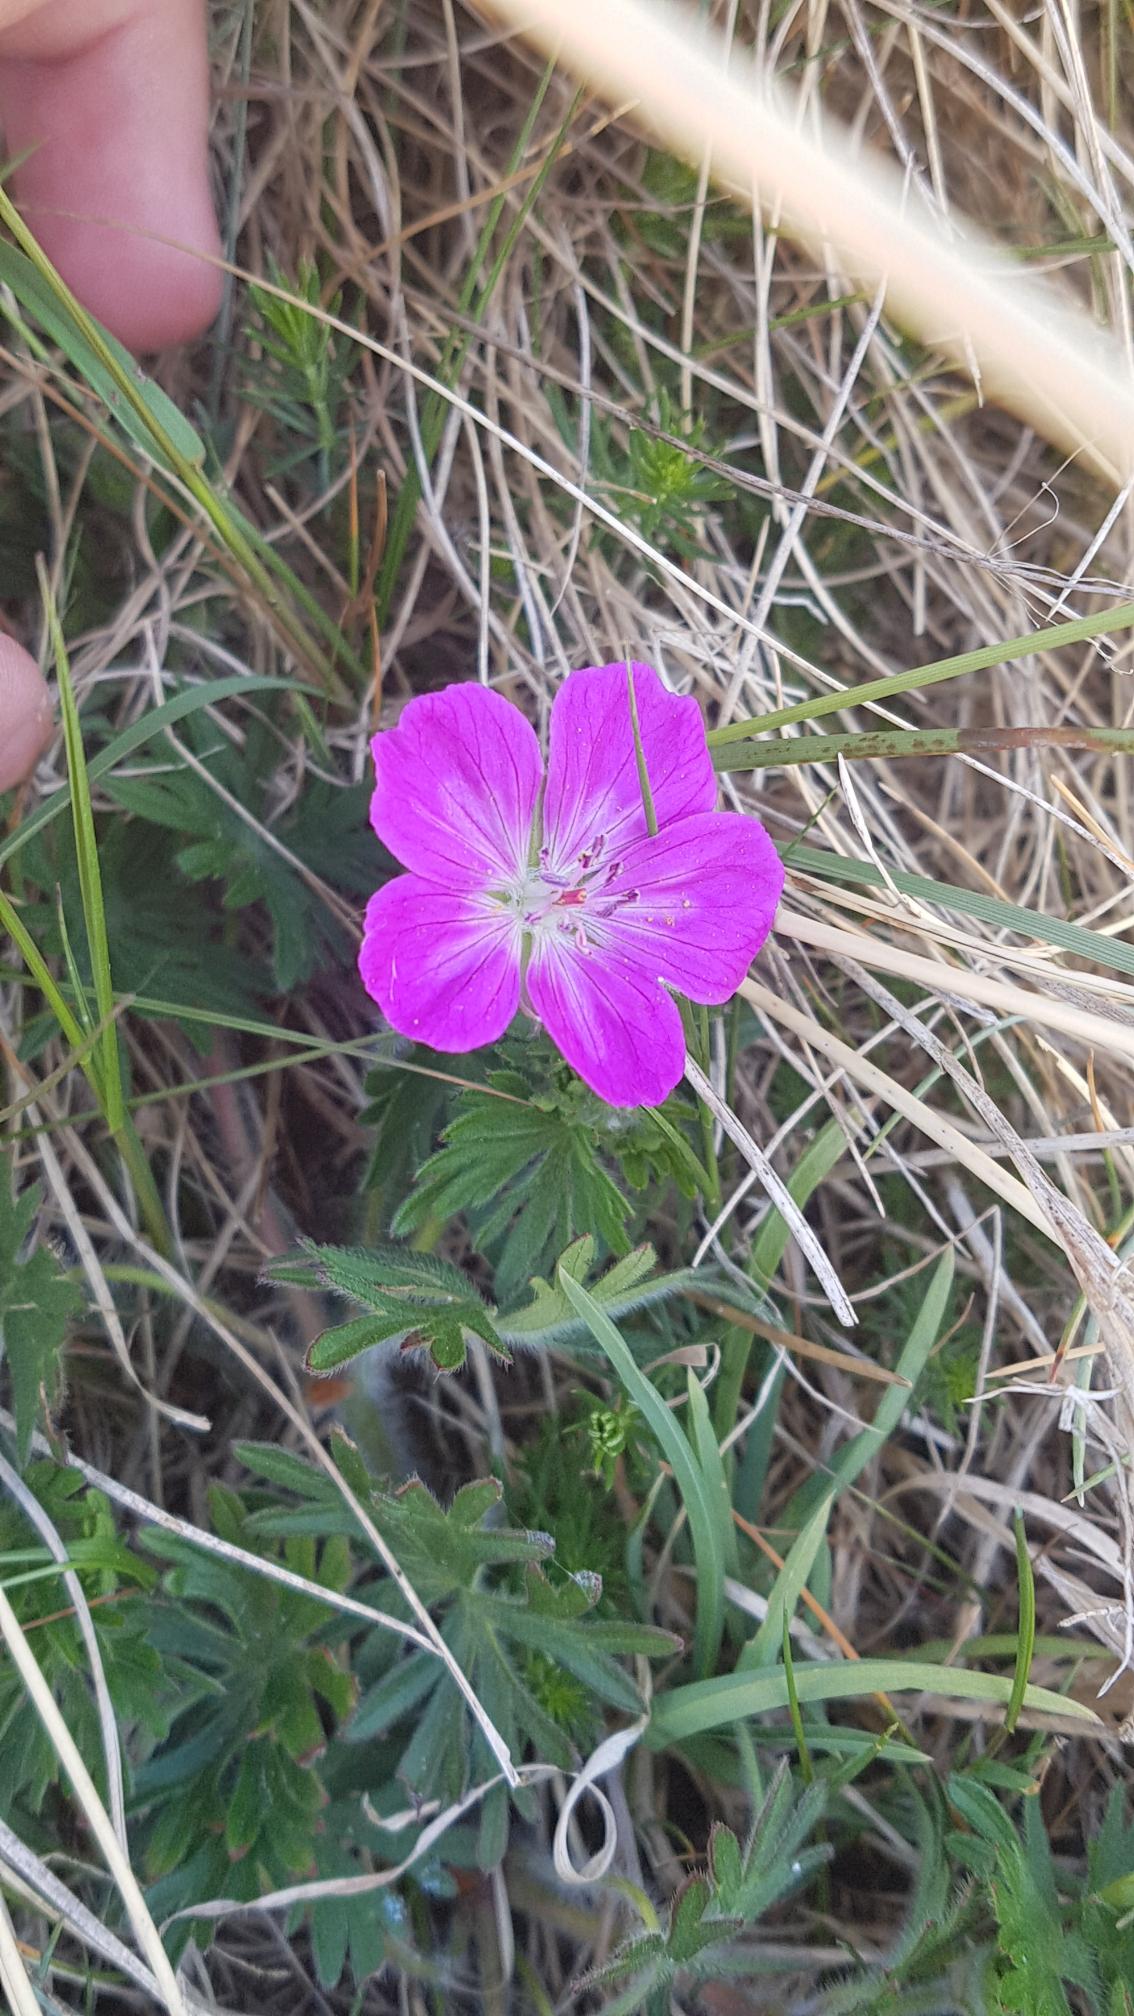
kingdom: Plantae
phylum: Tracheophyta
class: Magnoliopsida
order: Geraniales
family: Geraniaceae
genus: Geranium
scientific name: Geranium sanguineum
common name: Blodrød storkenæb
